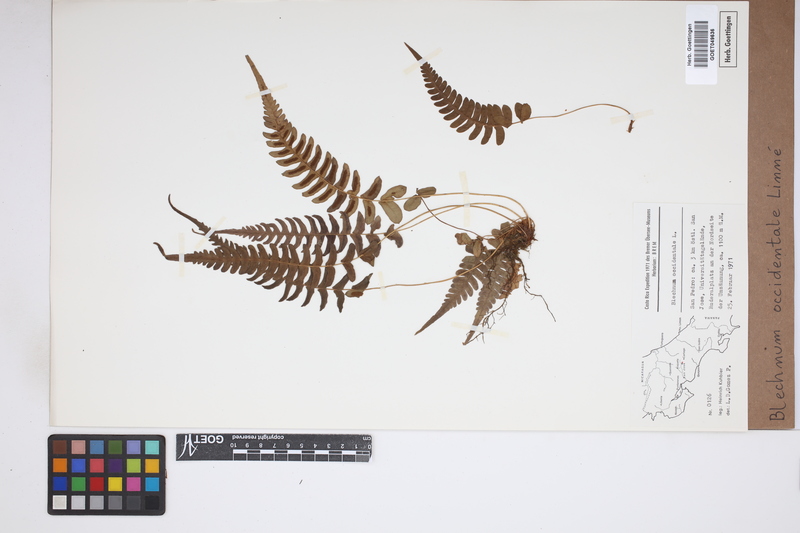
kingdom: Plantae
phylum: Tracheophyta
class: Polypodiopsida
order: Polypodiales
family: Blechnaceae
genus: Blechnum
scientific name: Blechnum occidentale
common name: Hammock fern
